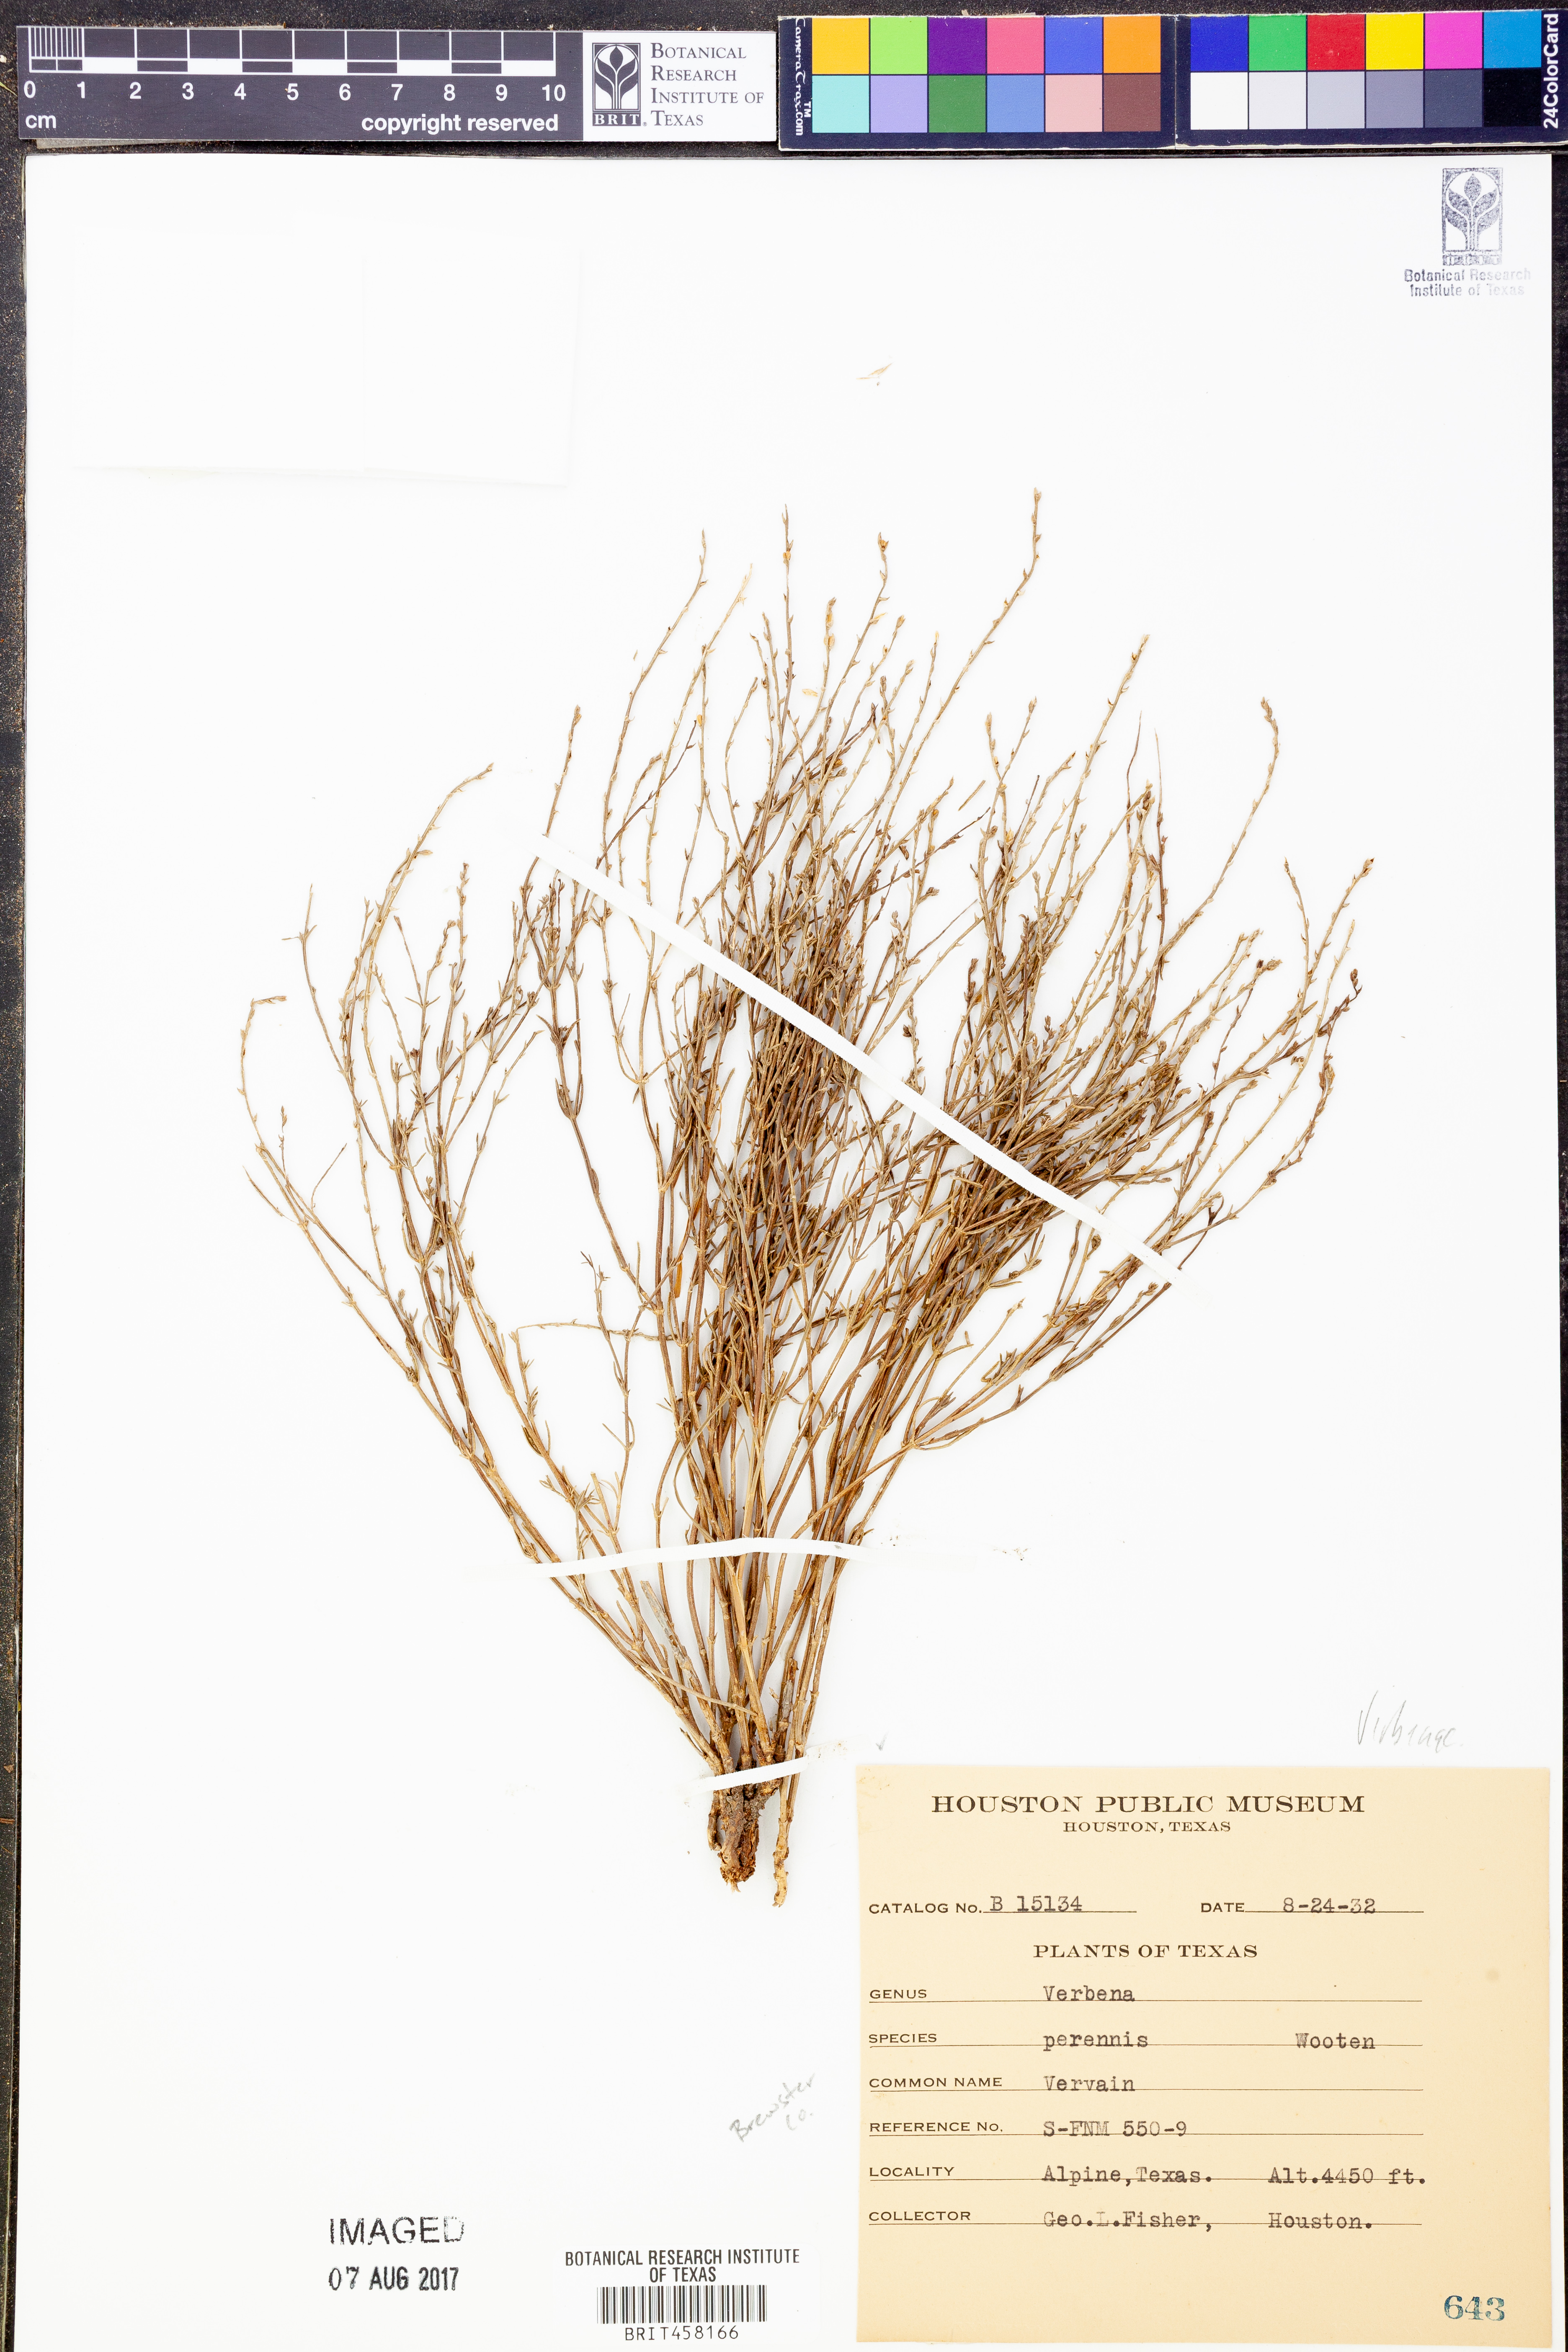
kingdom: Plantae
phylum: Tracheophyta
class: Magnoliopsida
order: Lamiales
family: Verbenaceae
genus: Verbena
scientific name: Verbena perennis
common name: Pin-leaf vervain
